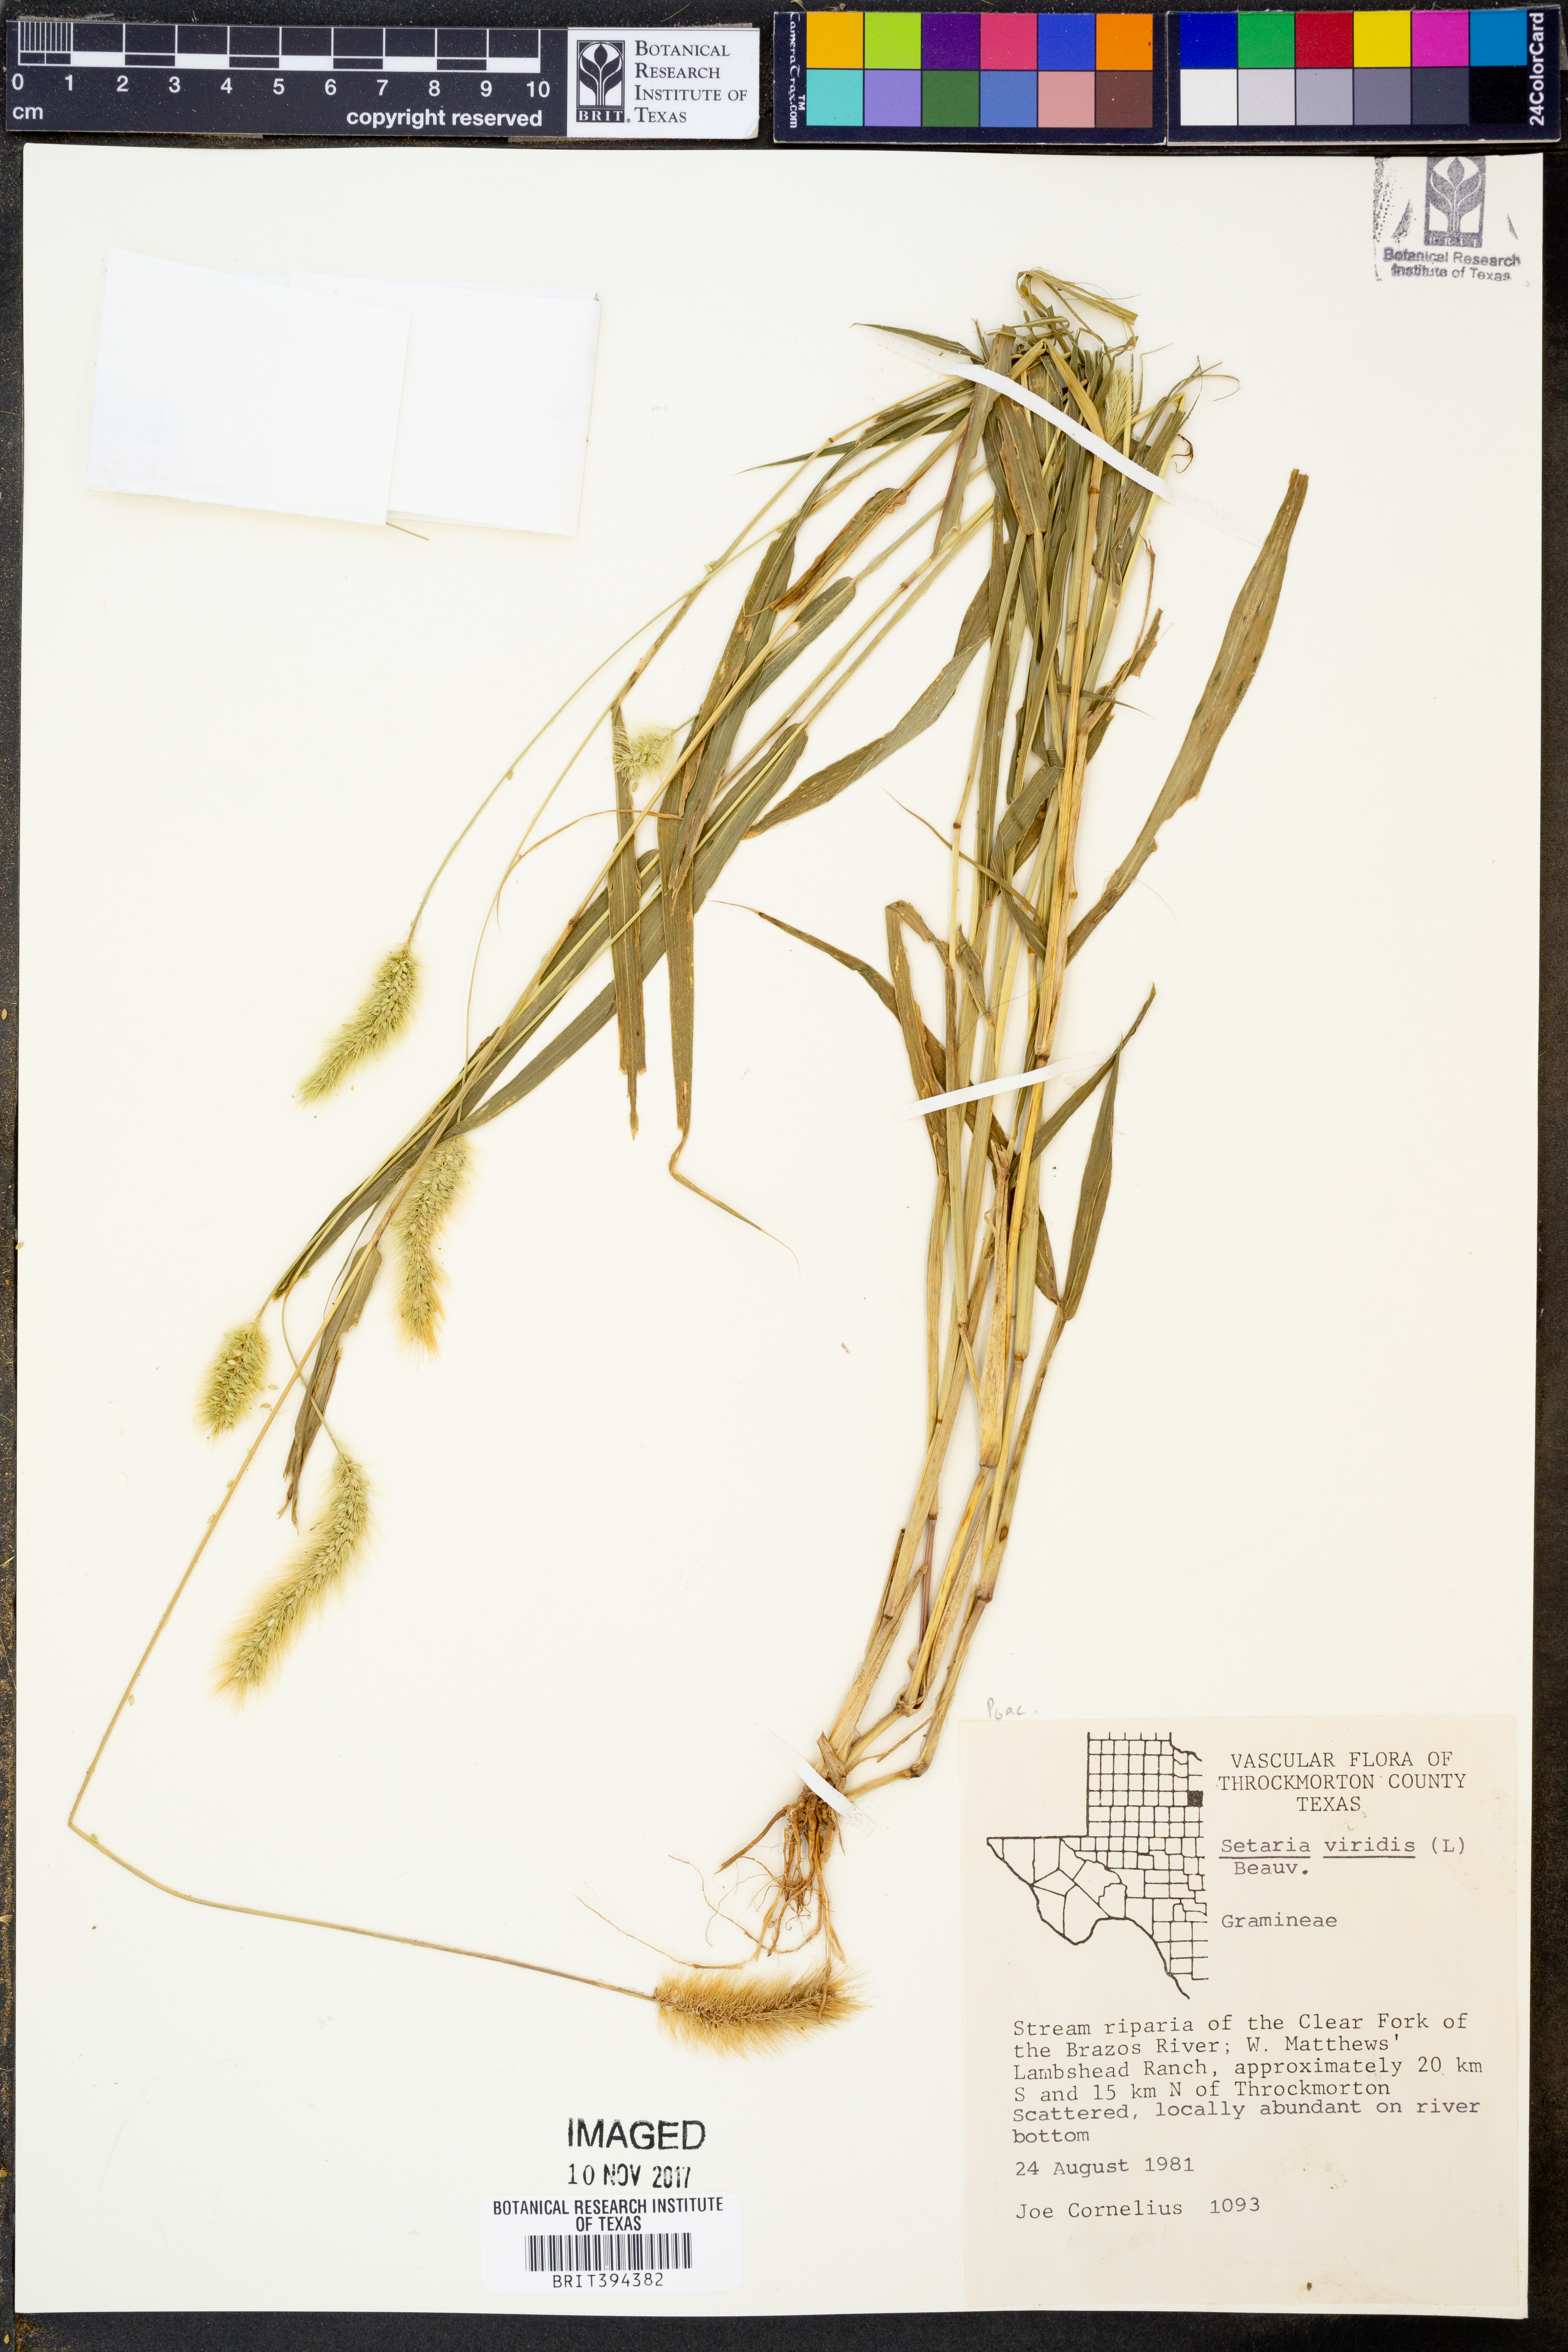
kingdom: Plantae
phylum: Tracheophyta
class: Liliopsida
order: Poales
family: Poaceae
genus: Setaria
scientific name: Setaria viridis
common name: Green bristlegrass
